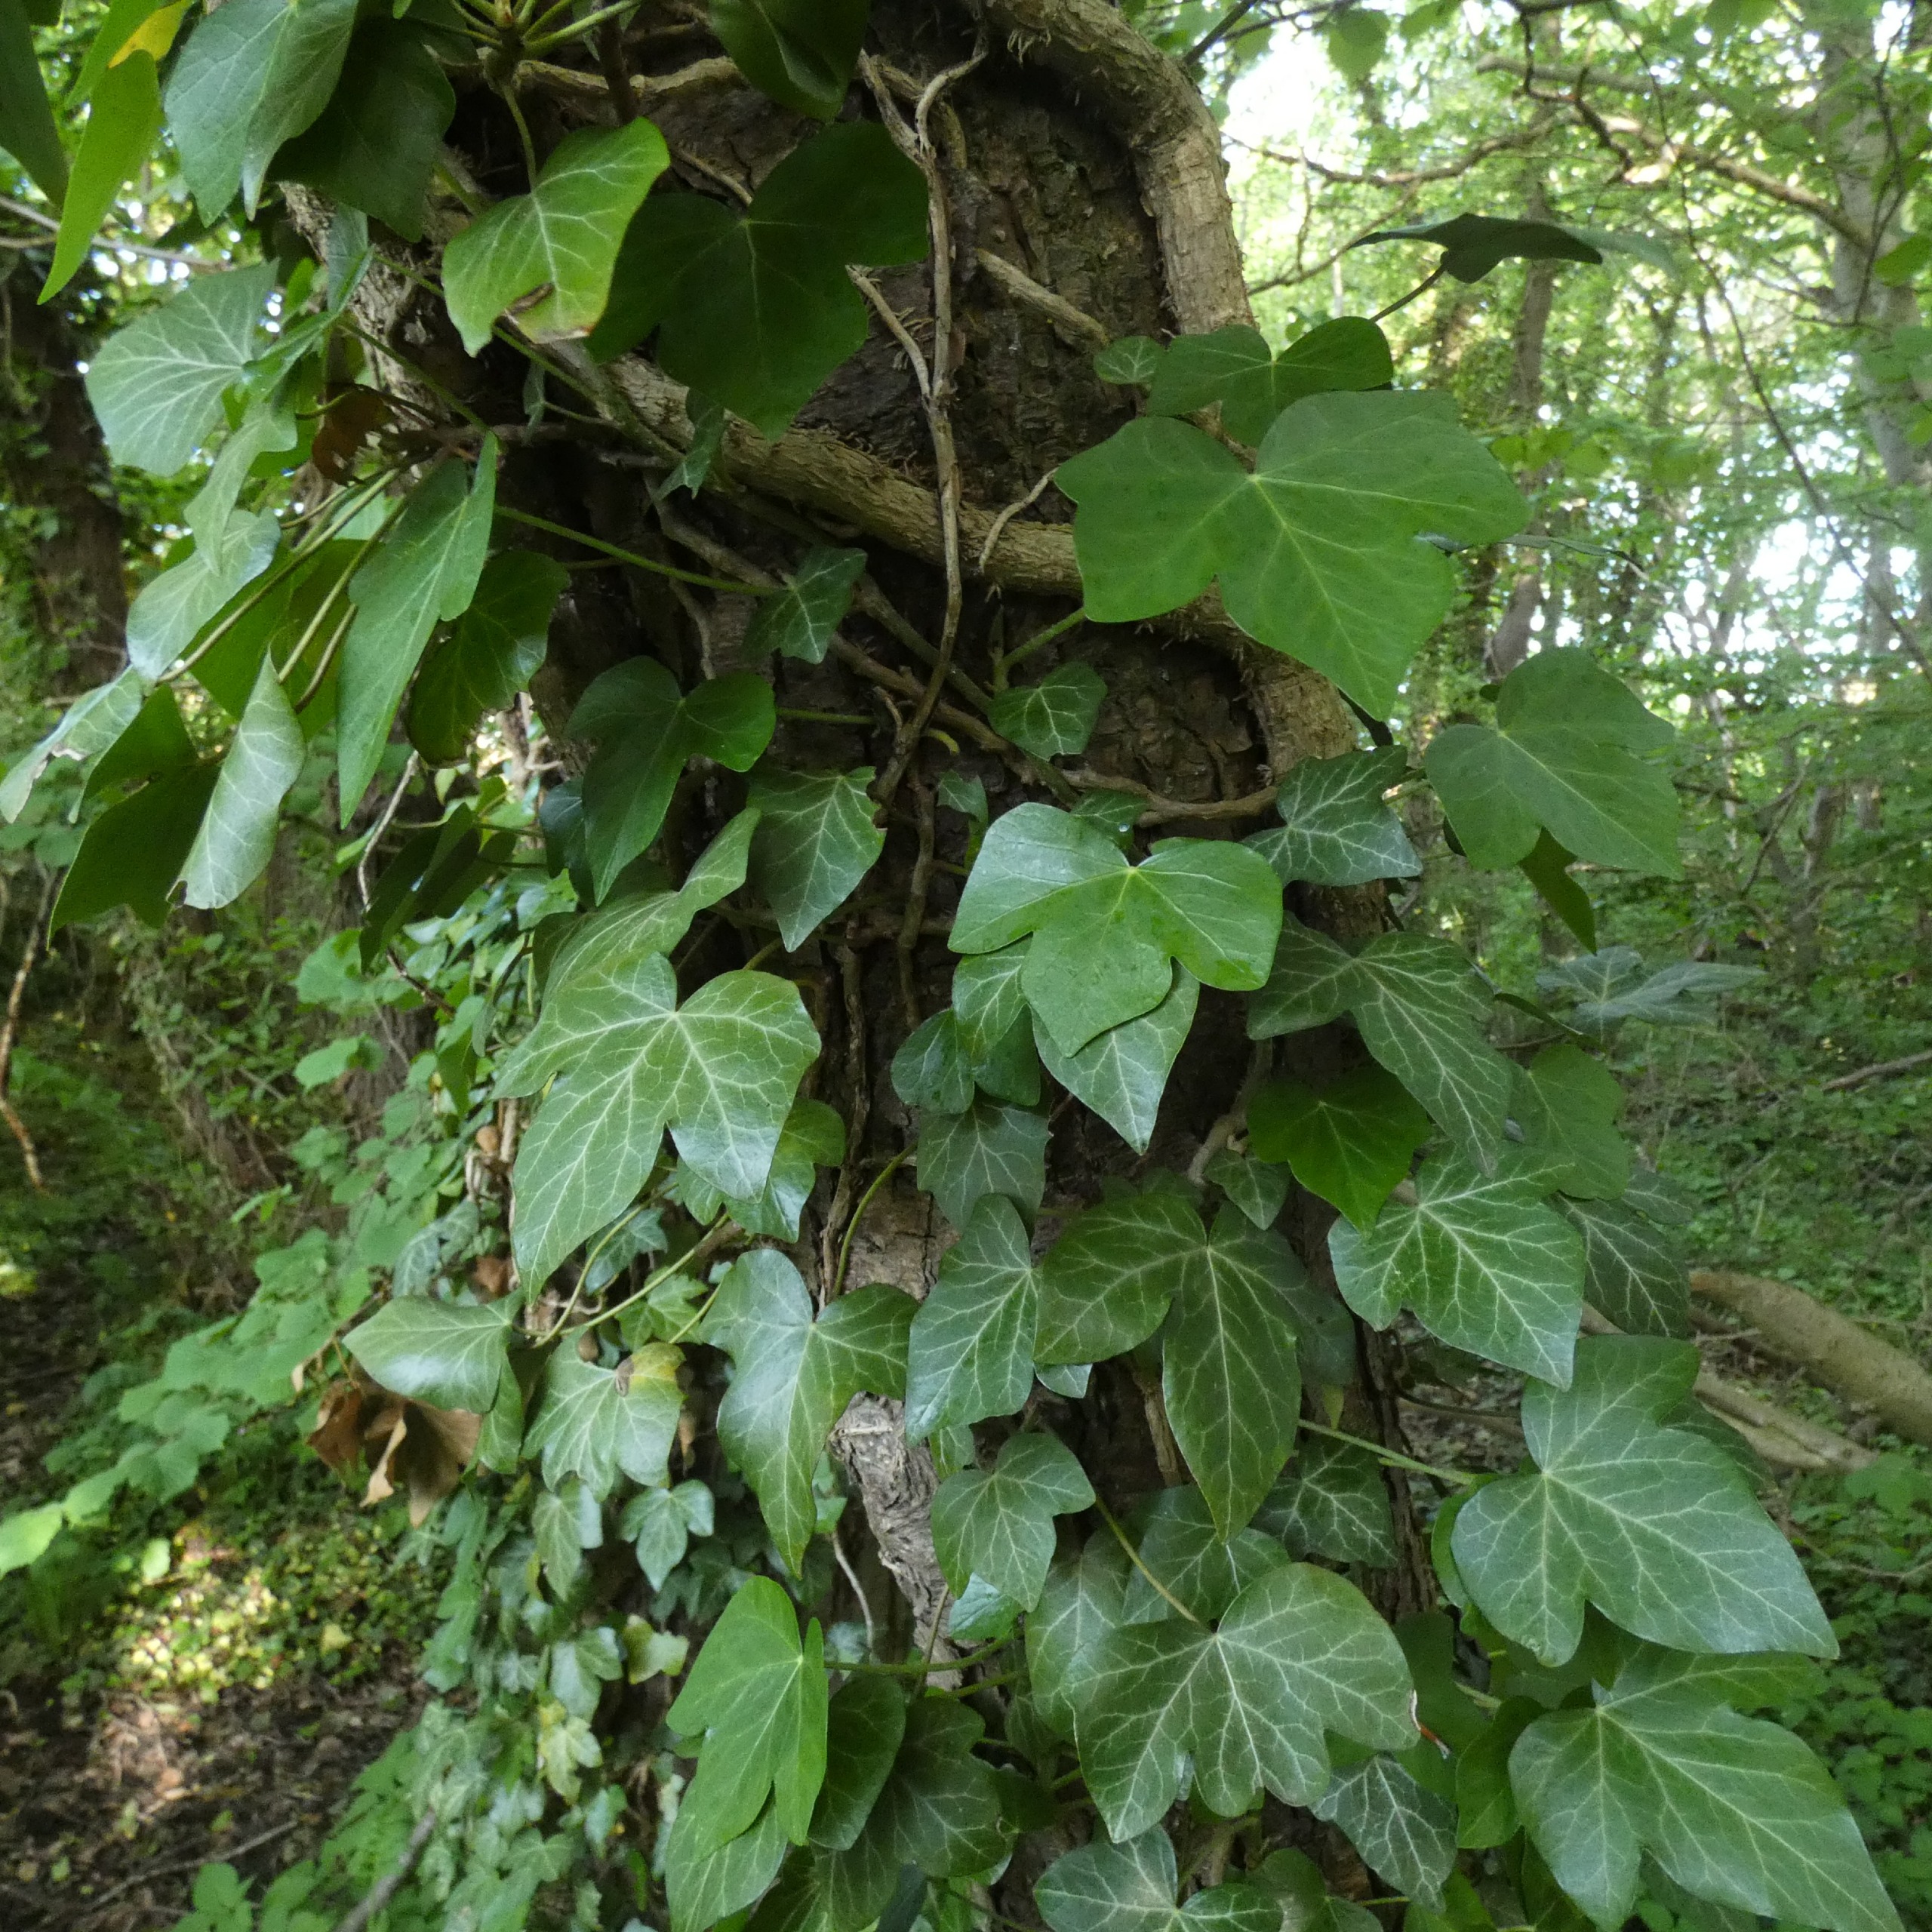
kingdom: Plantae
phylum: Tracheophyta
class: Magnoliopsida
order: Apiales
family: Araliaceae
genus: Hedera
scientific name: Hedera helix
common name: Vedbend
